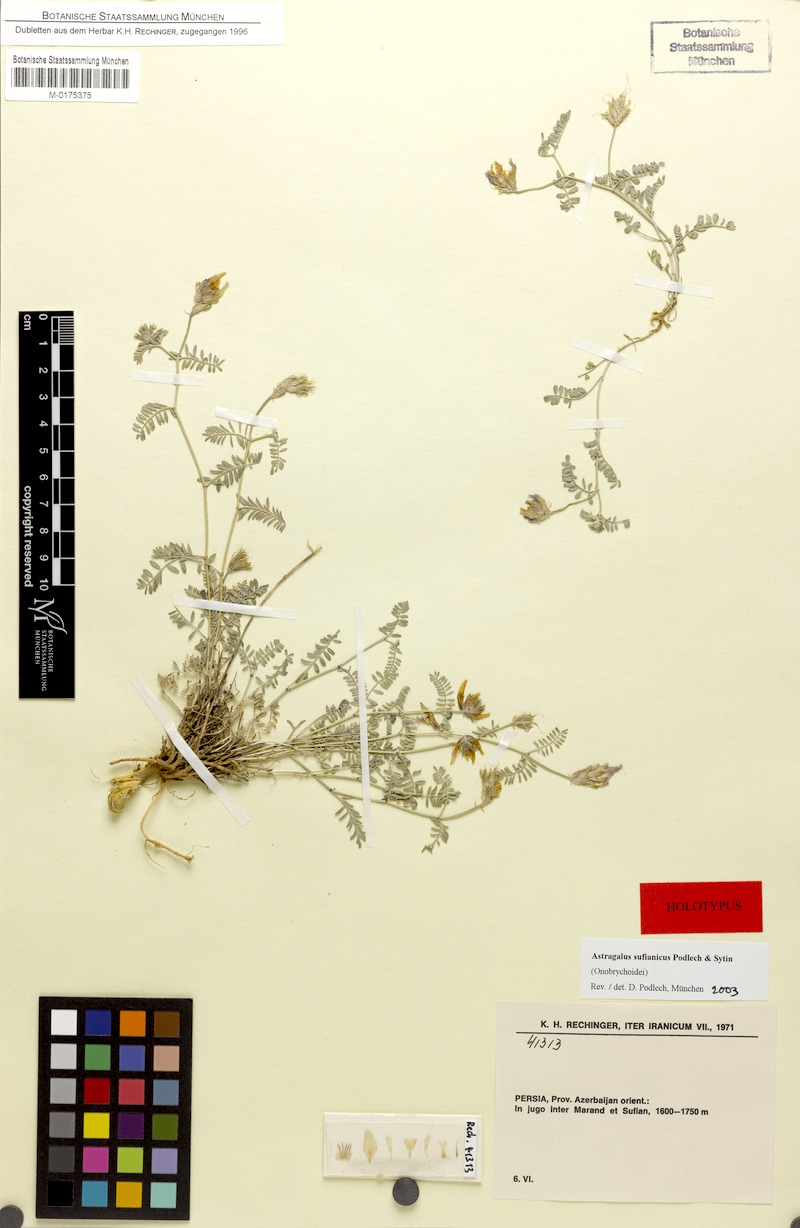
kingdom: Plantae
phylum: Tracheophyta
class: Magnoliopsida
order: Fabales
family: Fabaceae
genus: Astragalus
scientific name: Astragalus sufianicus
